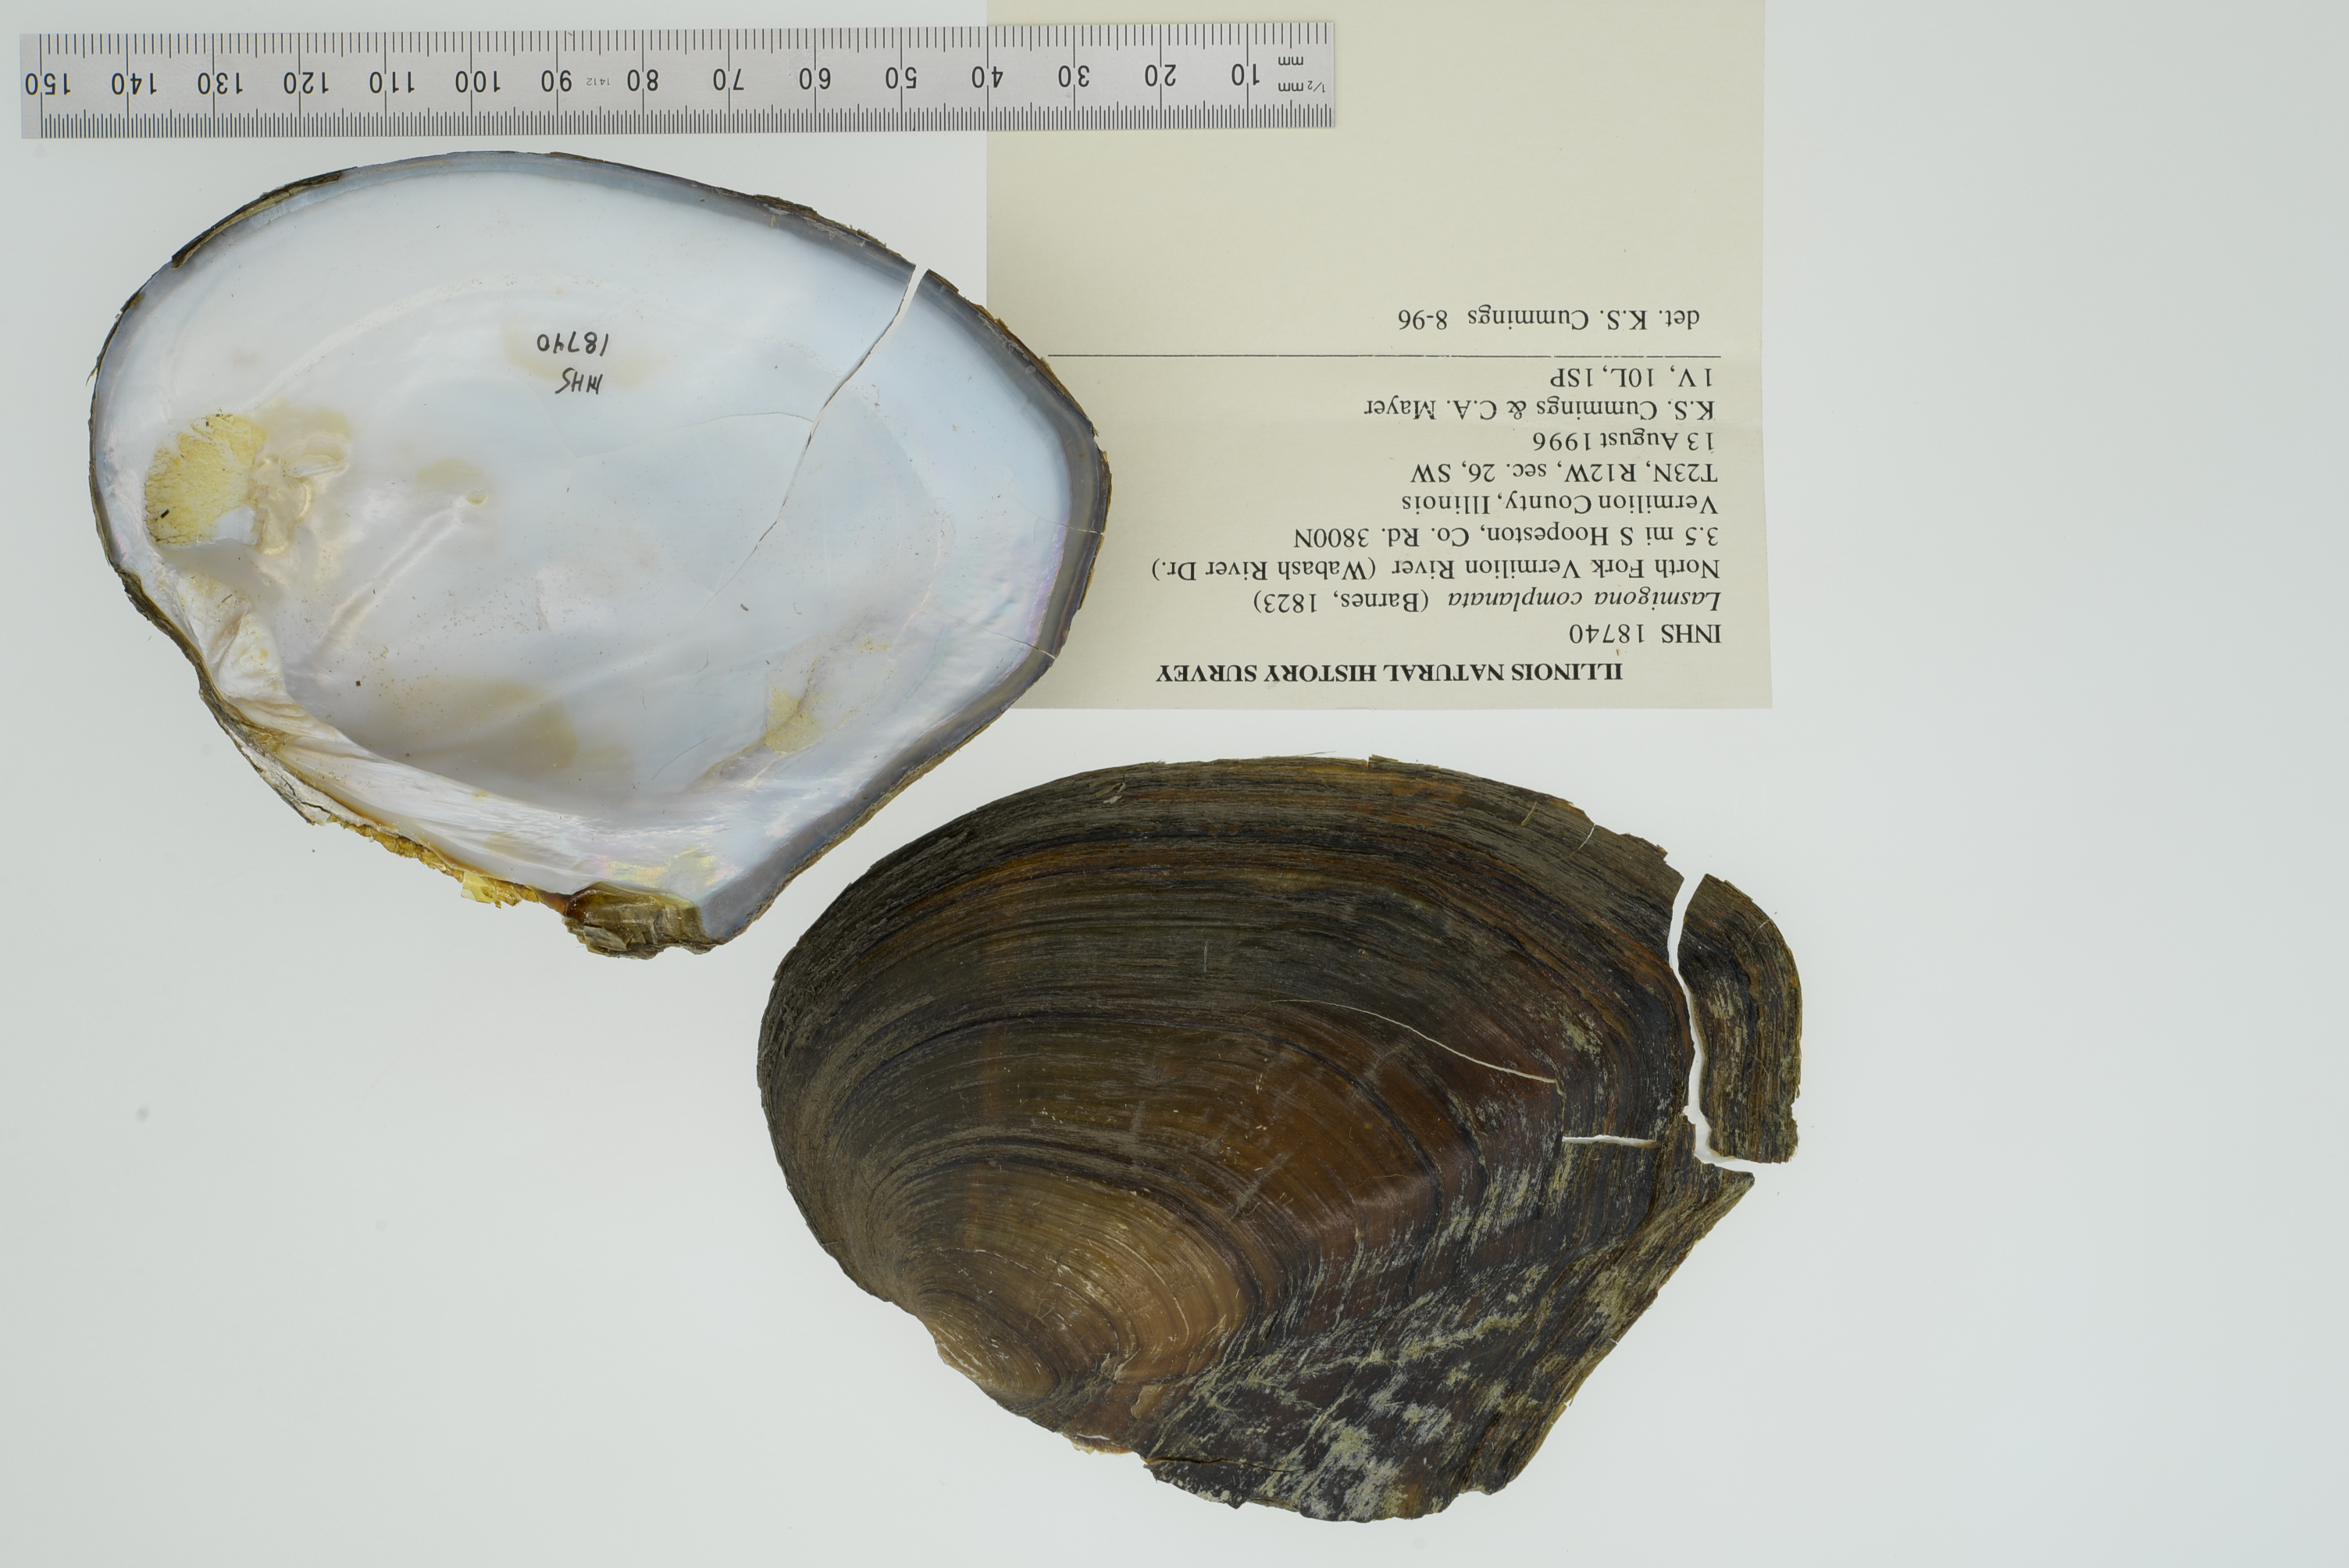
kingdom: Animalia
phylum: Mollusca
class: Bivalvia
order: Unionida
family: Unionidae
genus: Lasmigona
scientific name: Lasmigona complanata
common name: White heelsplitter
